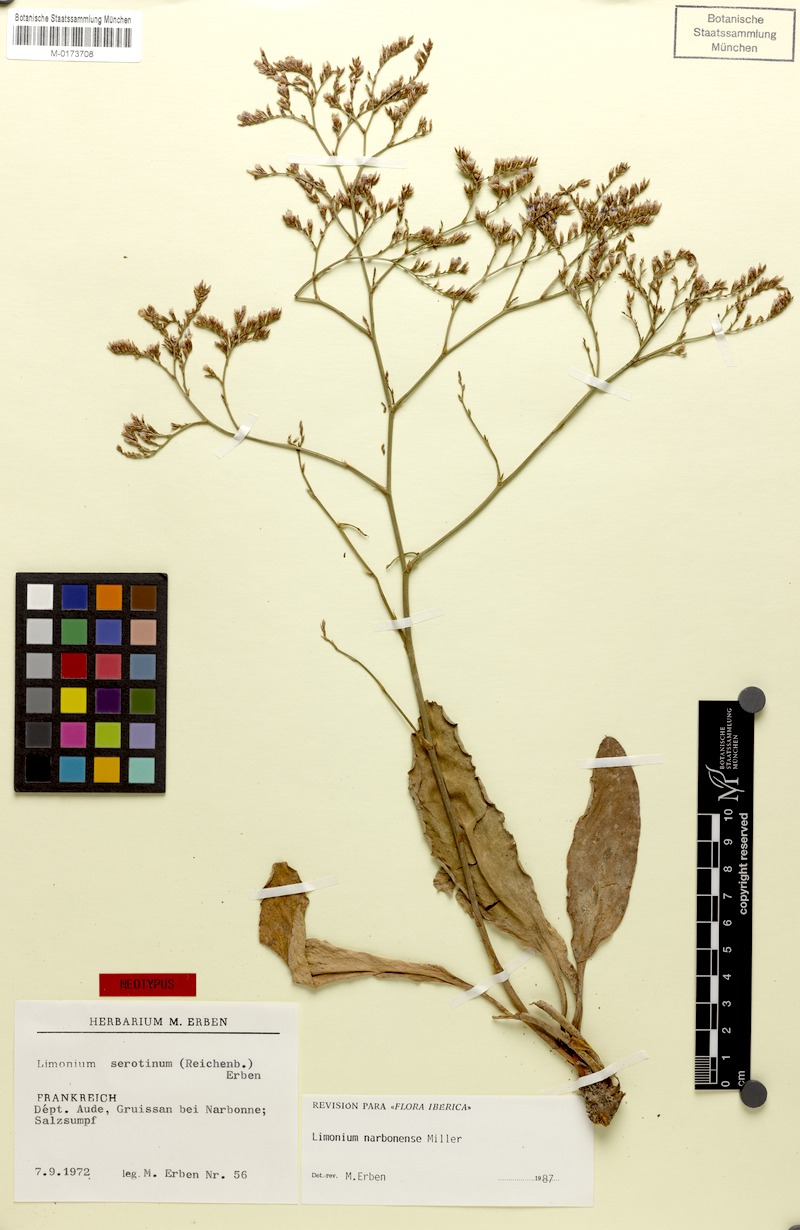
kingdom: Plantae
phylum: Tracheophyta
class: Magnoliopsida
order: Caryophyllales
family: Plumbaginaceae
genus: Limonium
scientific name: Limonium narbonense
